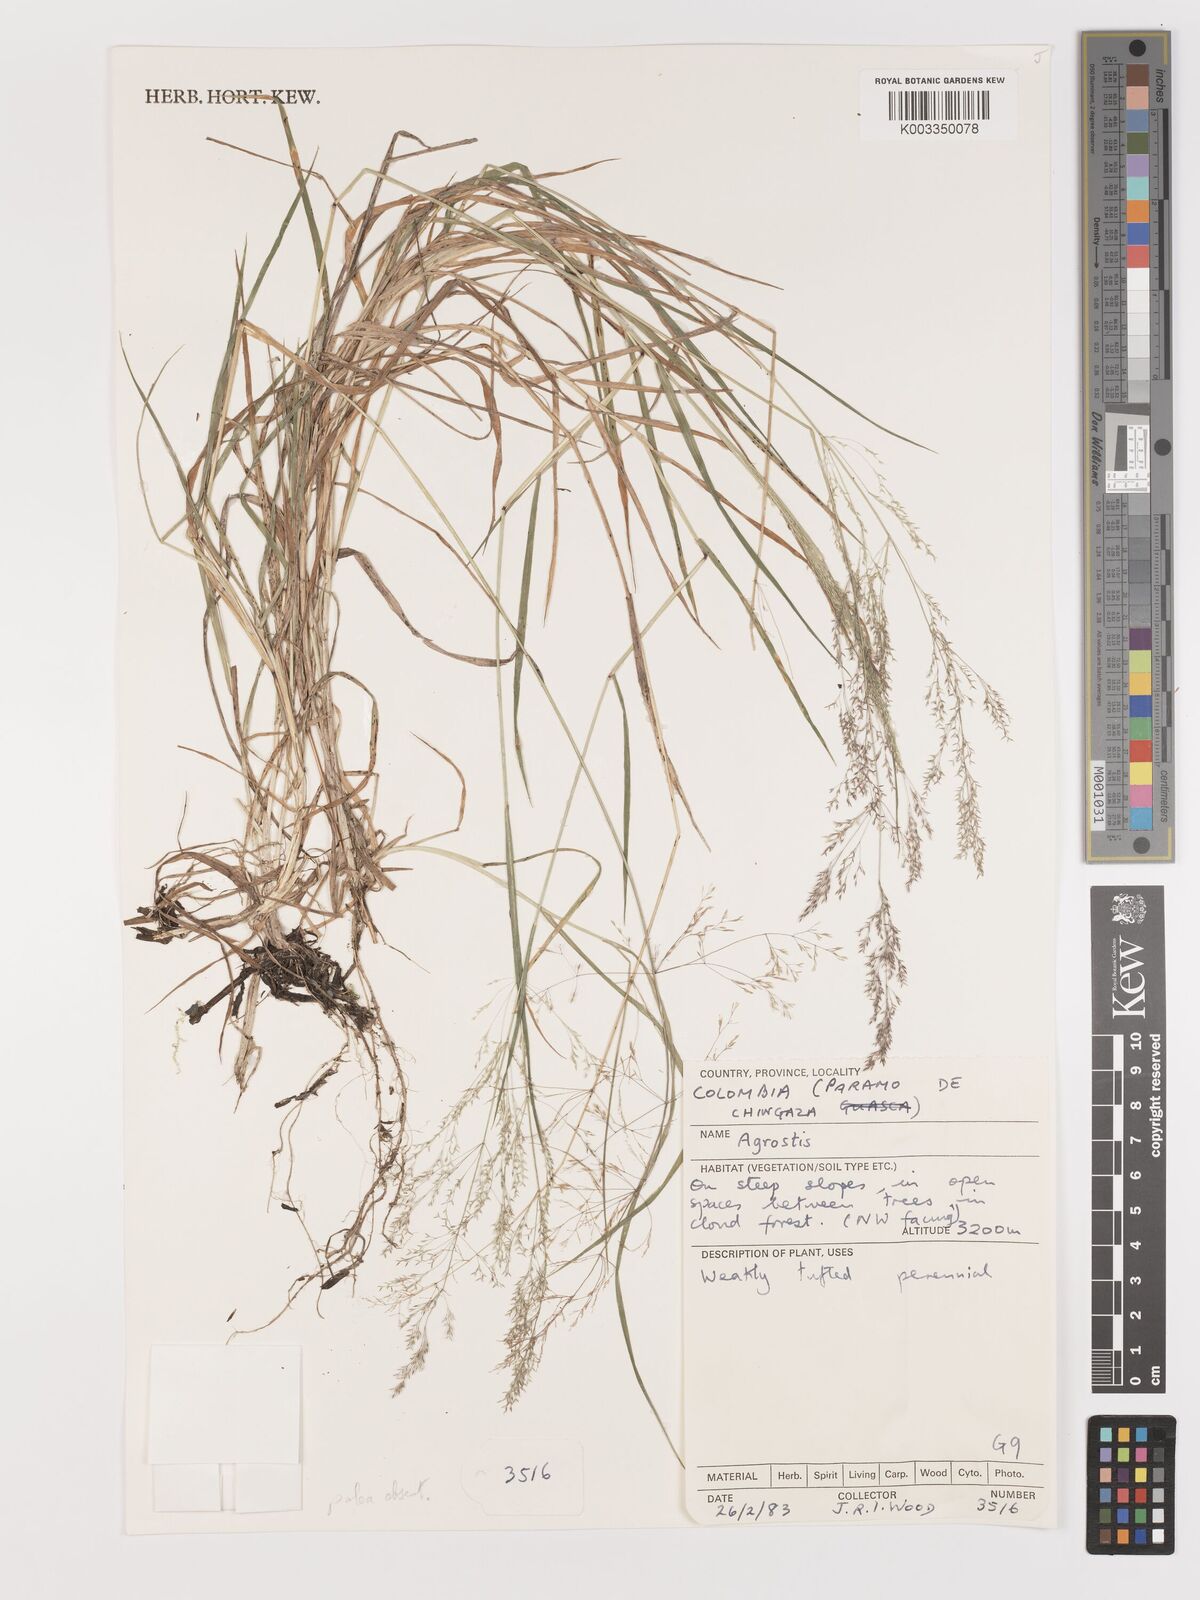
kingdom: Plantae
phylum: Tracheophyta
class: Liliopsida
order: Poales
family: Poaceae
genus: Agrostis
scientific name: Agrostis
